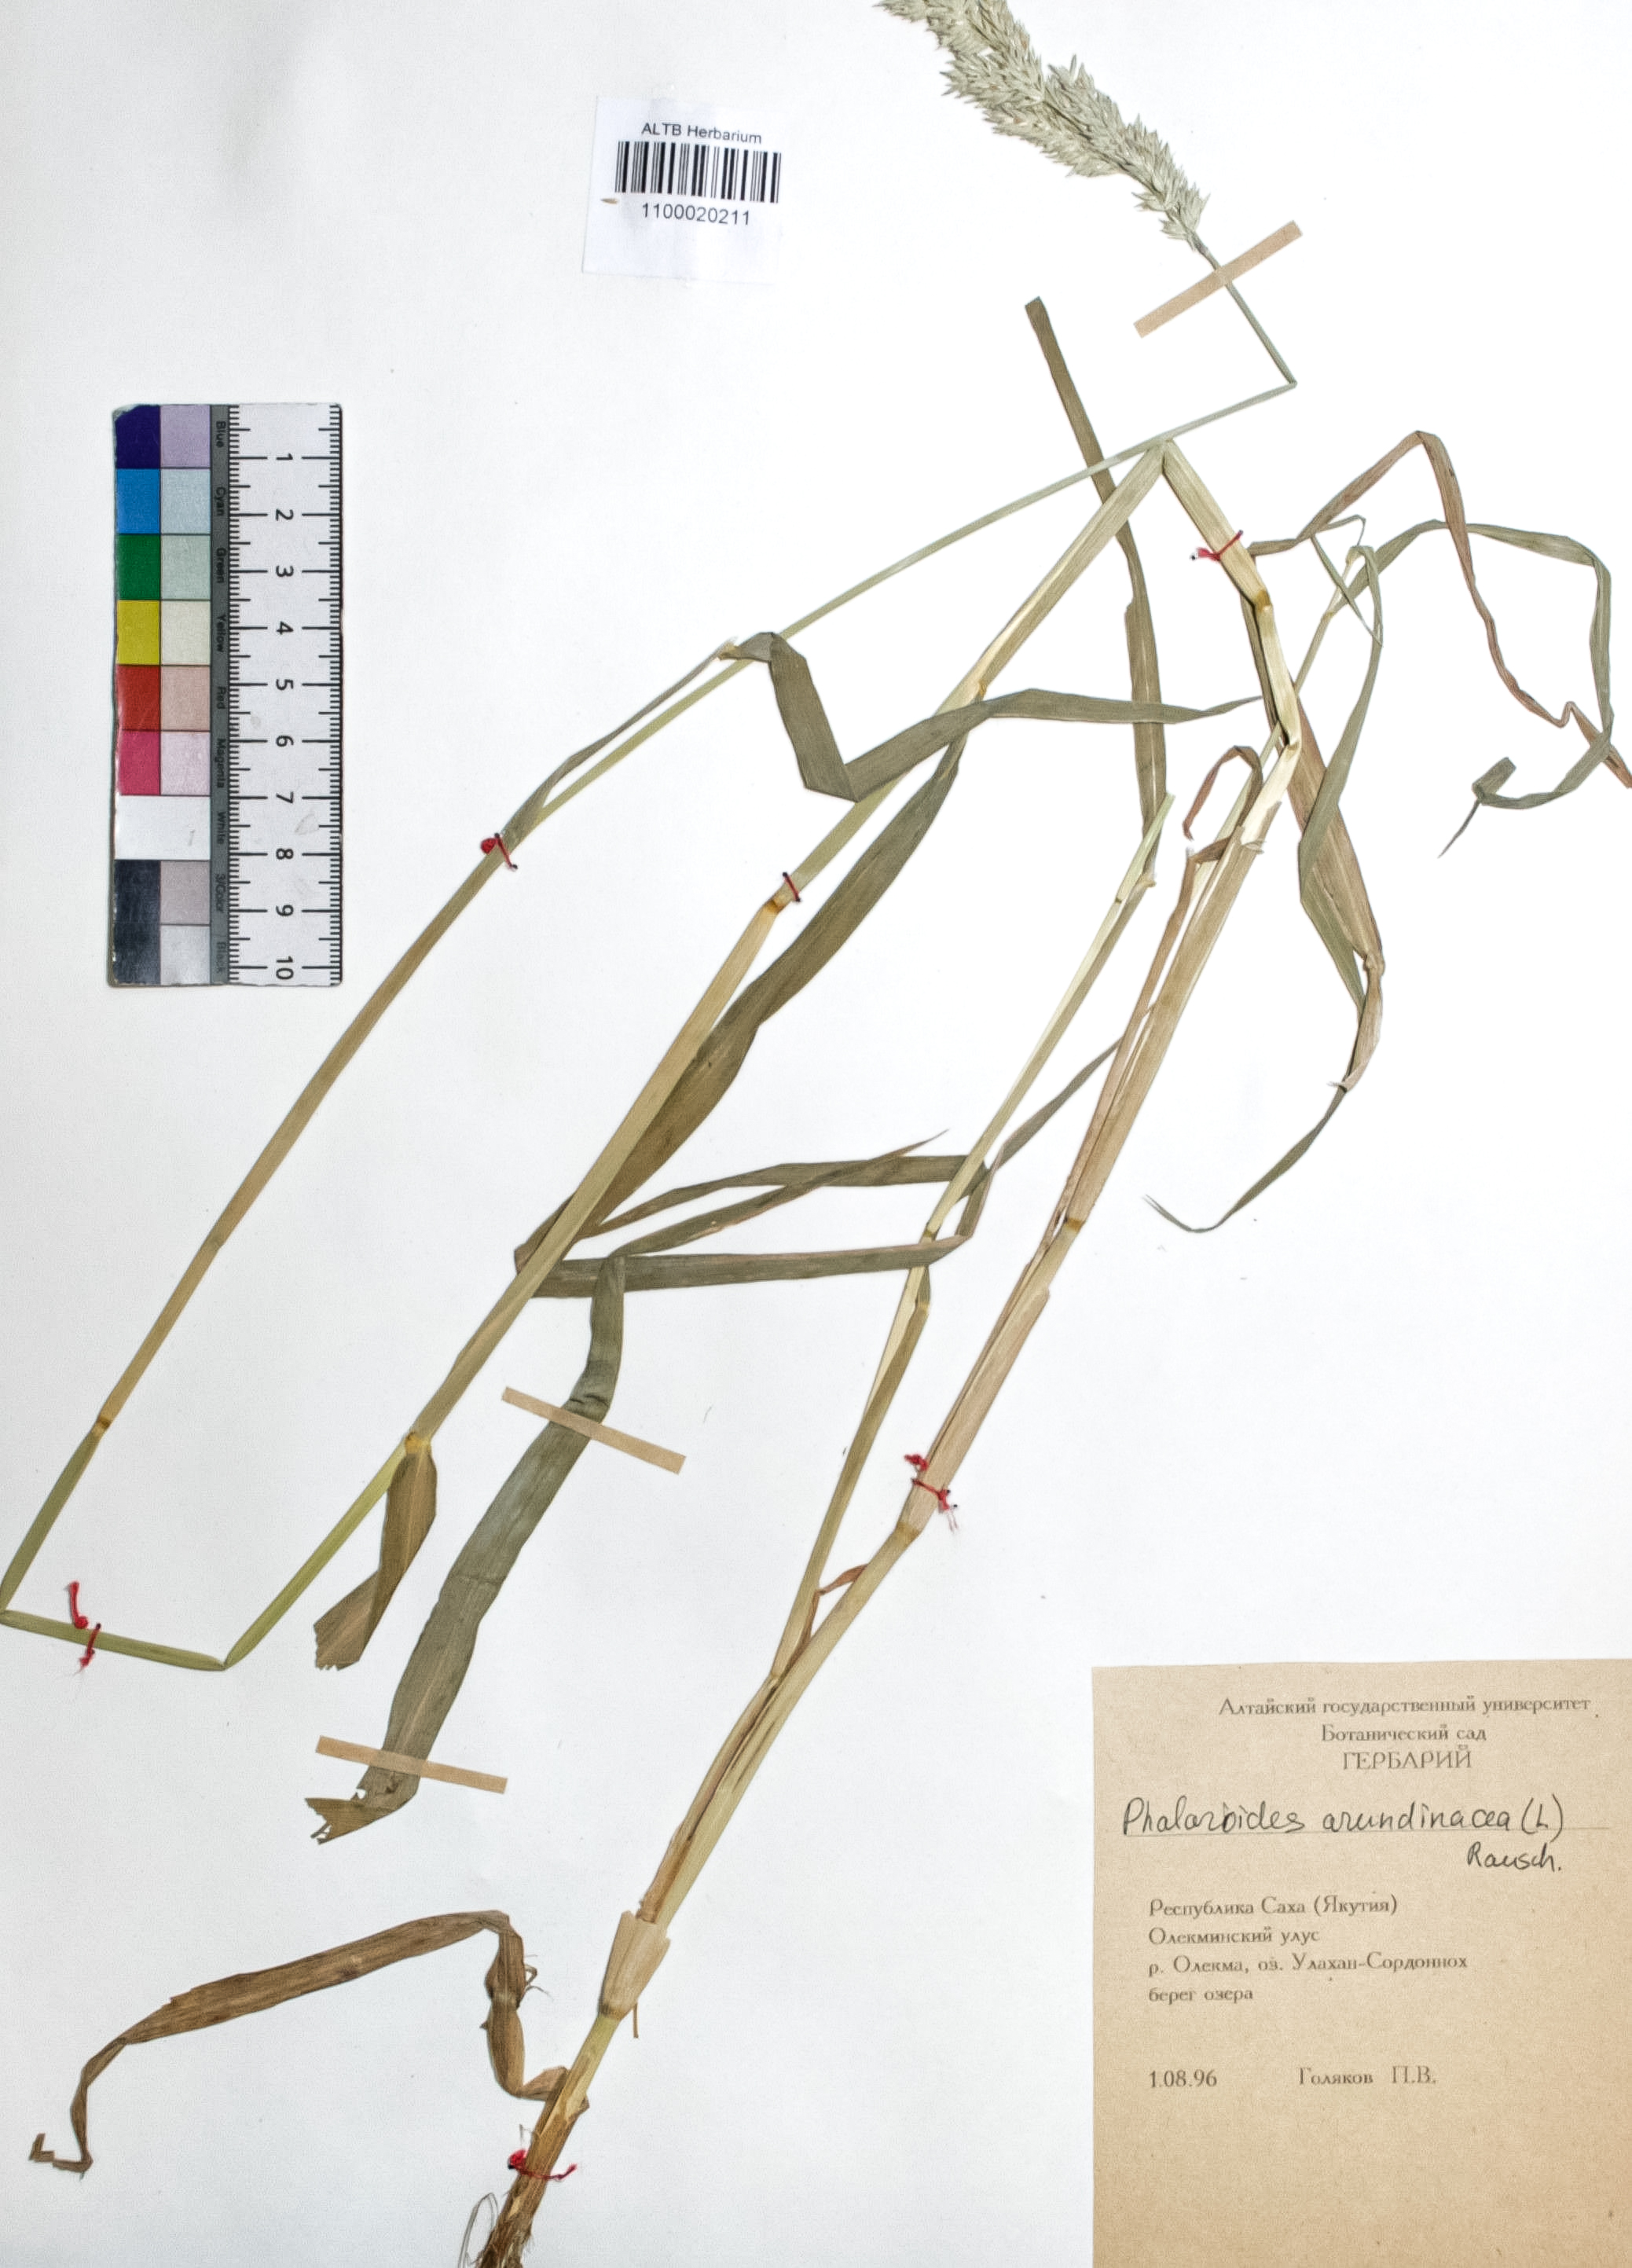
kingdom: Plantae
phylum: Tracheophyta
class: Liliopsida
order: Poales
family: Poaceae
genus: Phalaris
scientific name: Phalaris arundinacea
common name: Reed canary-grass
